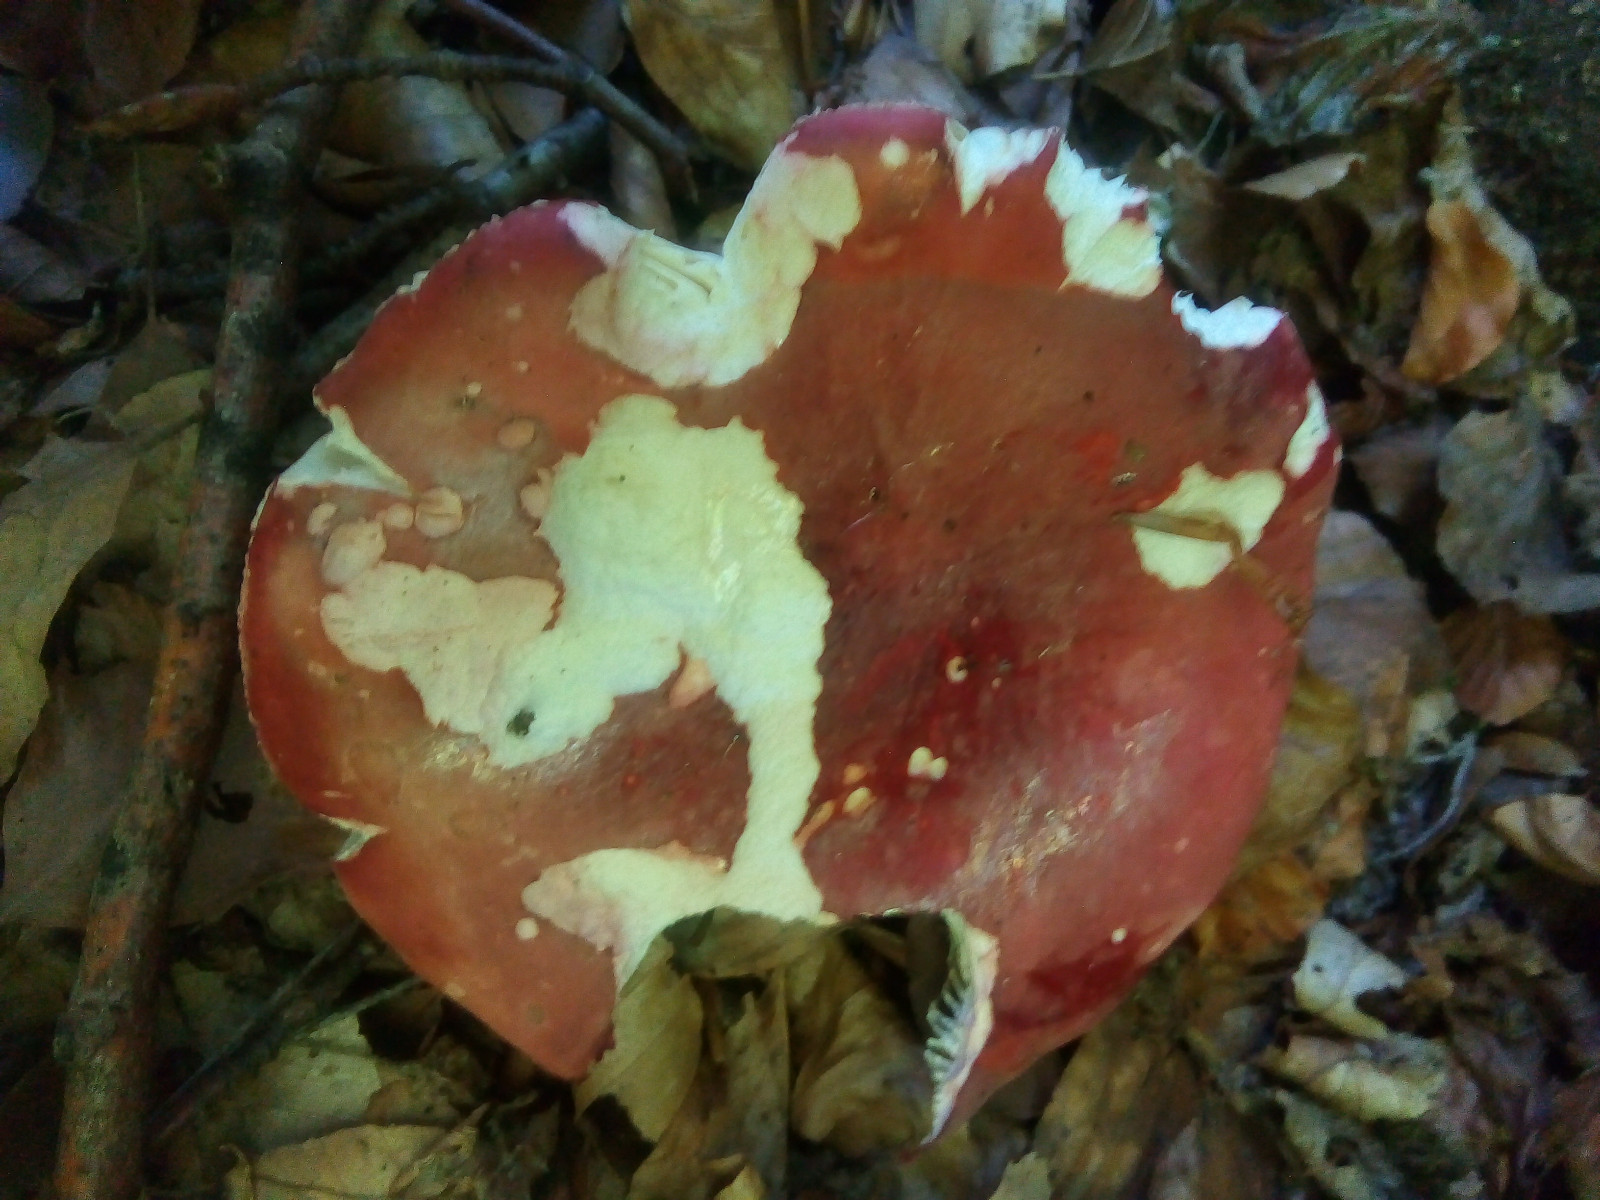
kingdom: Fungi
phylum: Basidiomycota
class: Agaricomycetes
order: Russulales
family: Russulaceae
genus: Russula
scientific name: Russula rosea
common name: fastkødet skørhat
